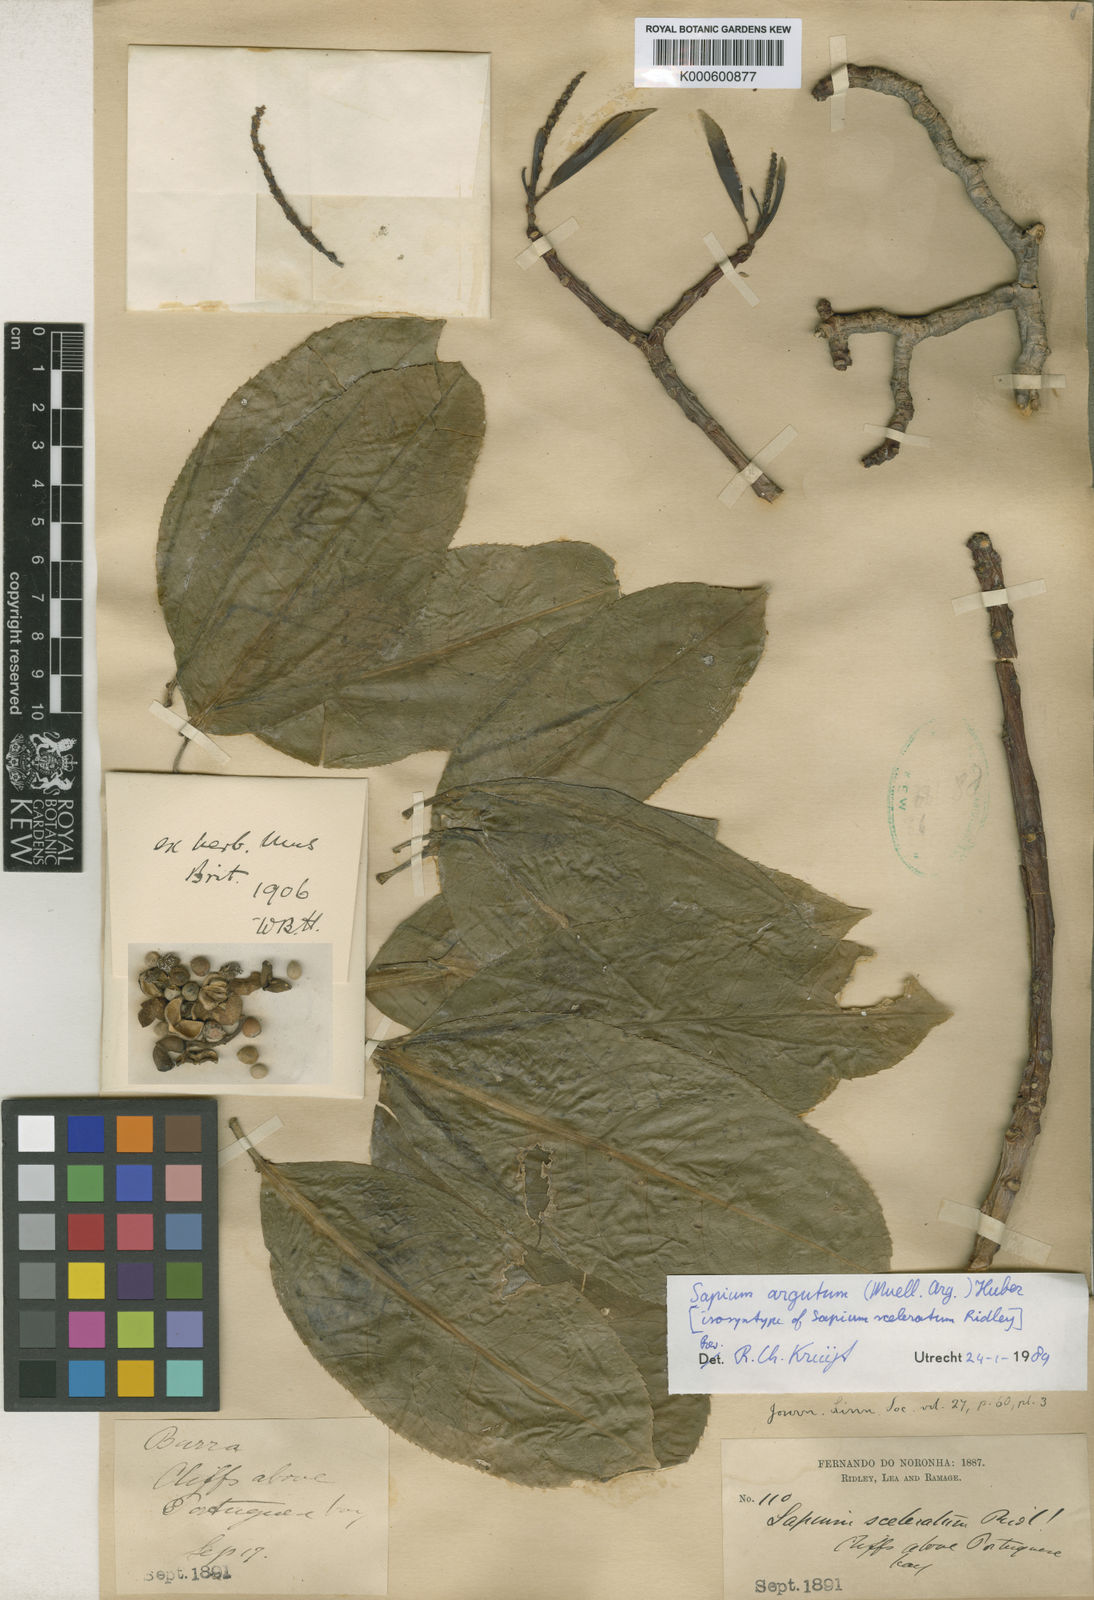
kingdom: Plantae
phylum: Tracheophyta
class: Magnoliopsida
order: Malpighiales
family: Euphorbiaceae
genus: Sapium
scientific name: Sapium
